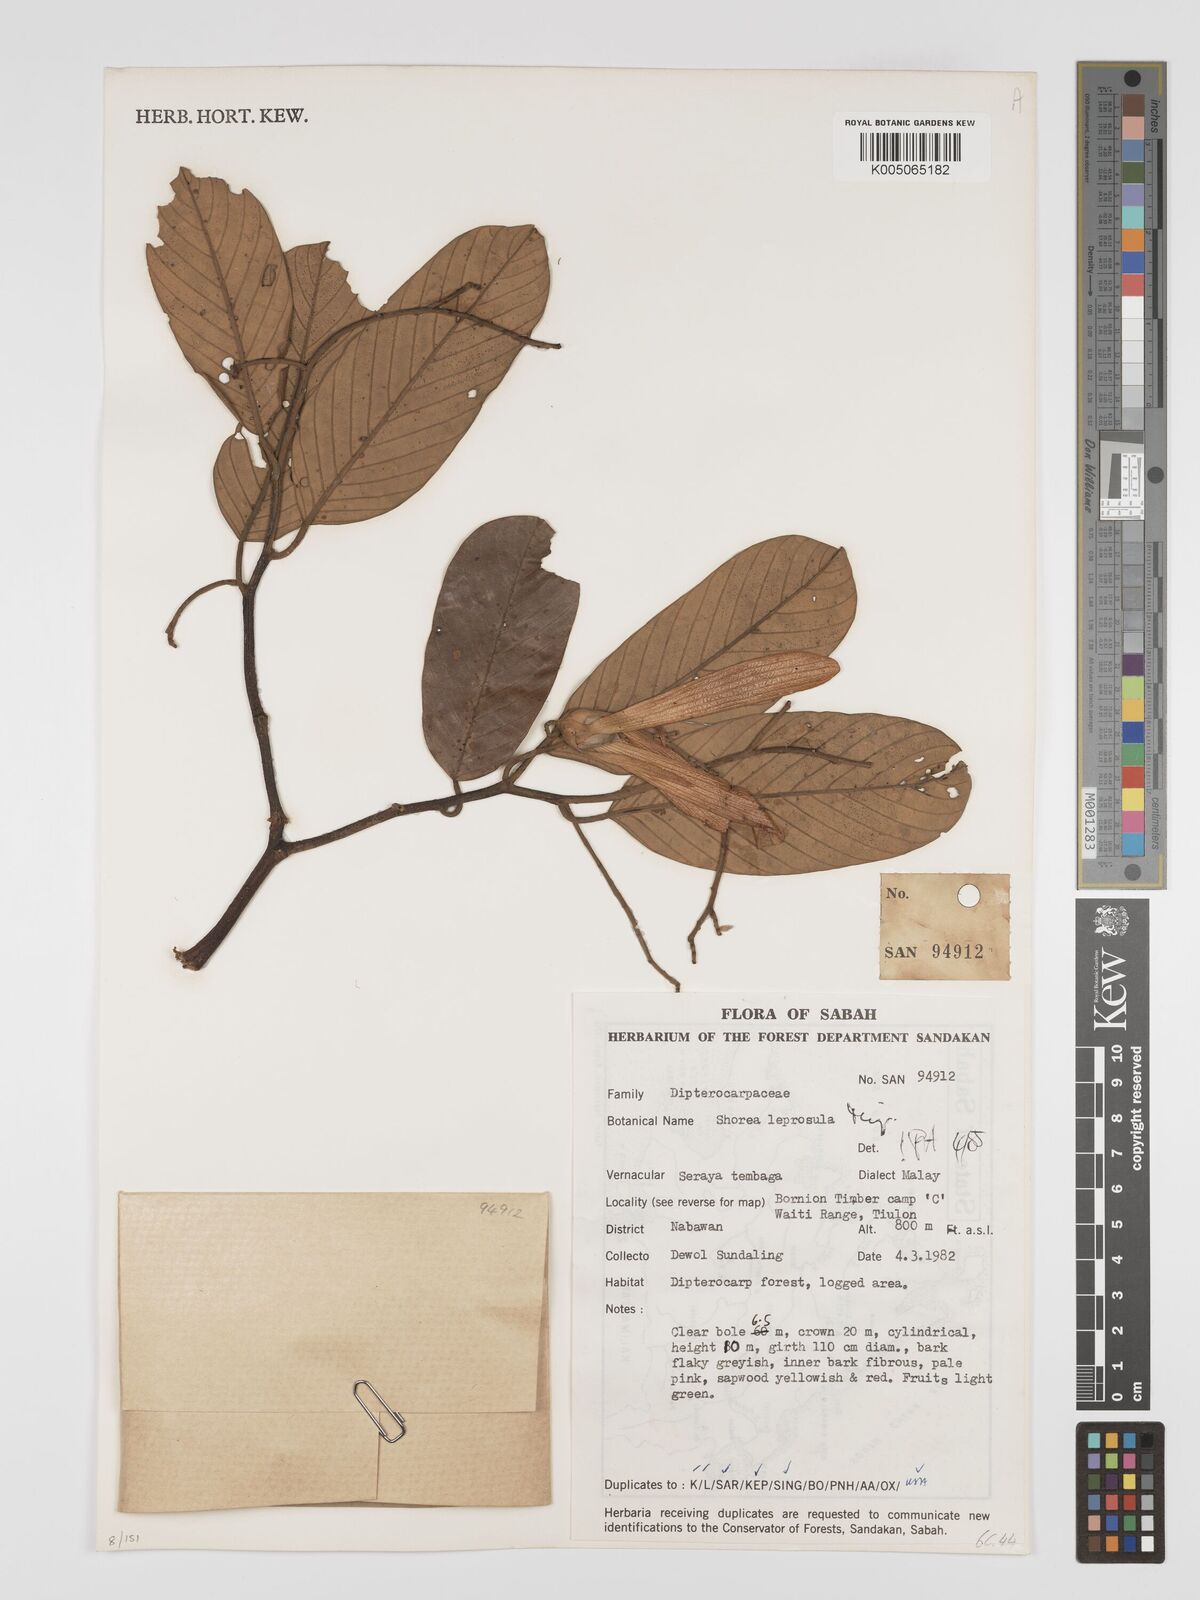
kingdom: Plantae
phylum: Tracheophyta
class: Magnoliopsida
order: Malvales
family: Dipterocarpaceae
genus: Shorea
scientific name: Shorea leprosula
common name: Light red meranti
